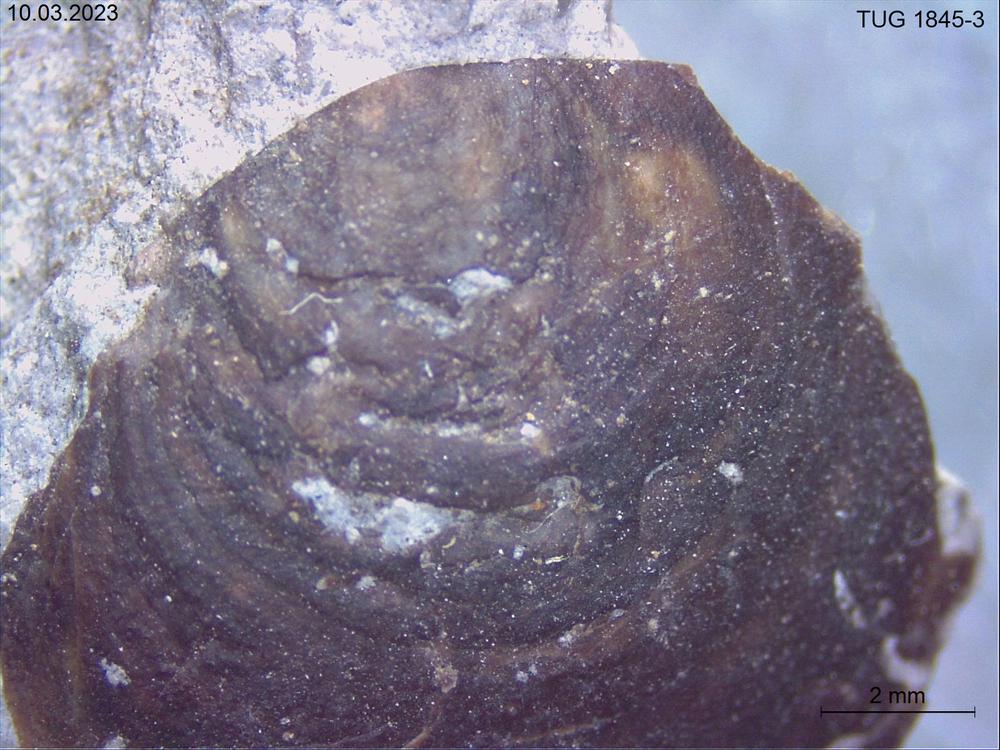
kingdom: Animalia
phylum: Brachiopoda
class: Lingulata
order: Siphonotretida
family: Siphonotretidae
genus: Siphonotreta
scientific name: Siphonotreta
